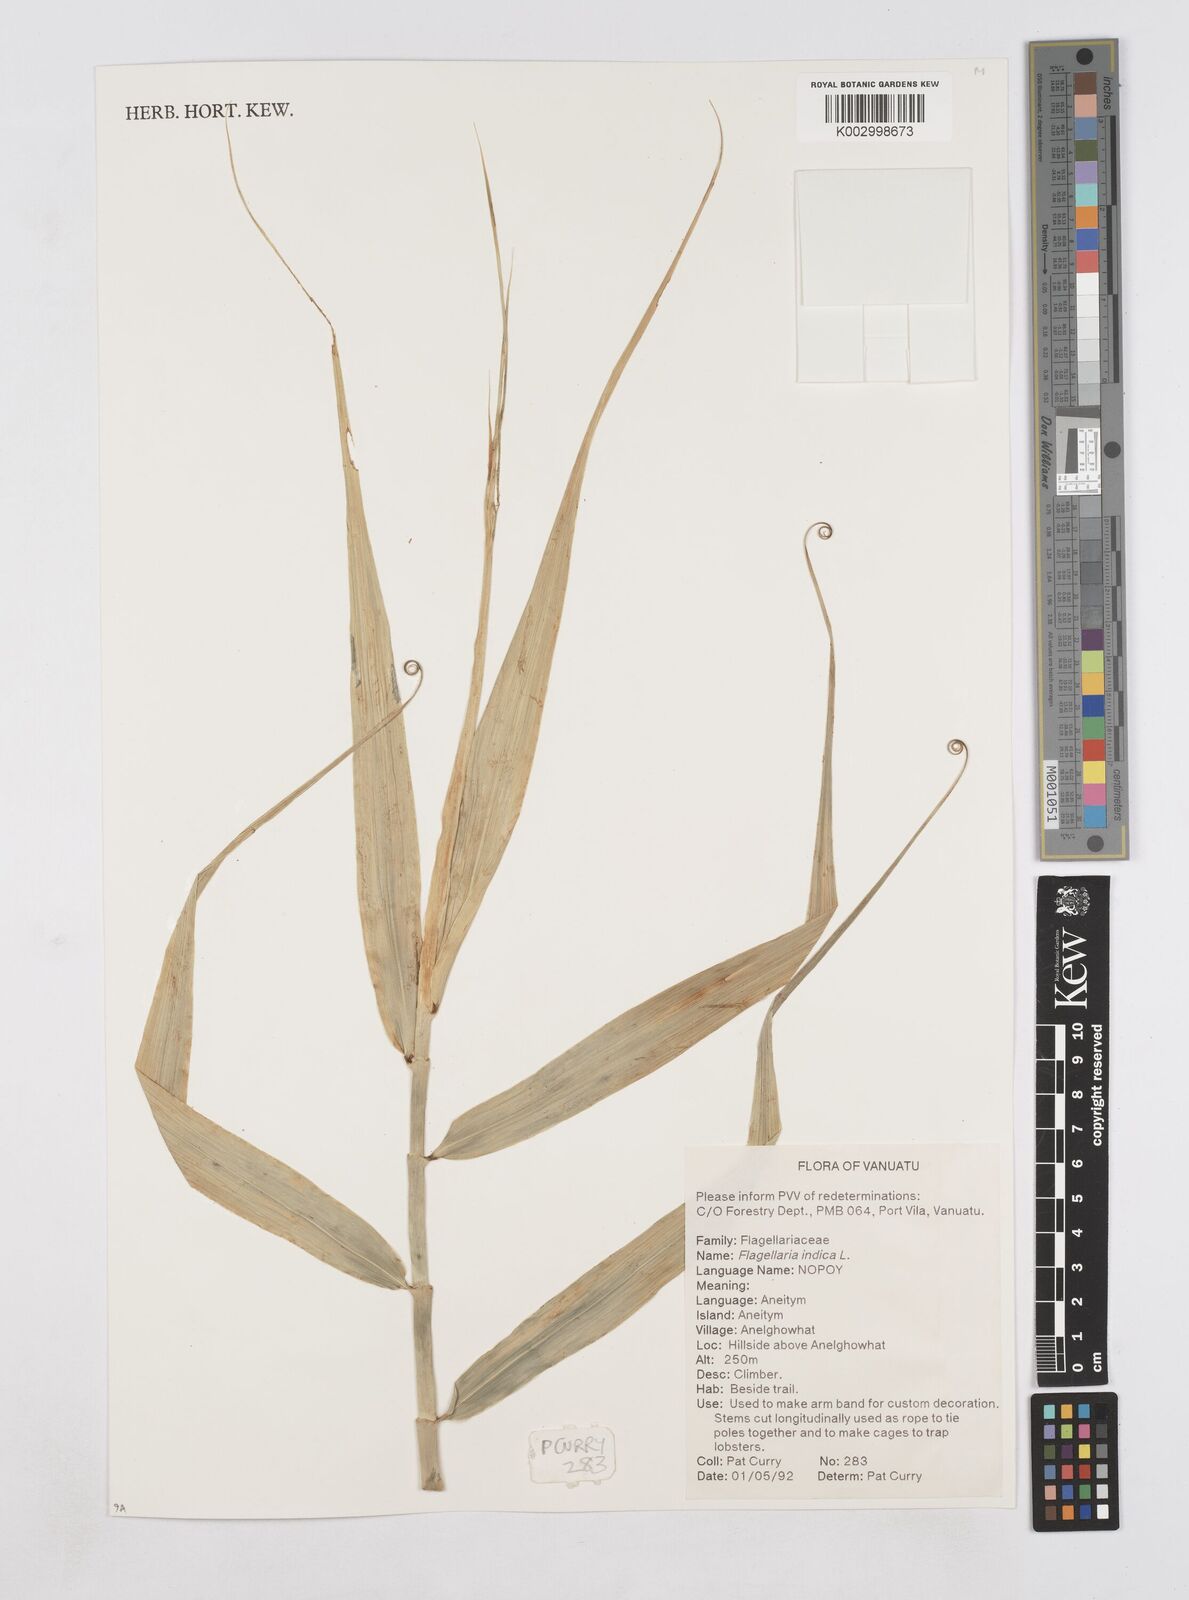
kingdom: Plantae
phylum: Tracheophyta
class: Liliopsida
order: Poales
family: Flagellariaceae
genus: Flagellaria
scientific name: Flagellaria indica
